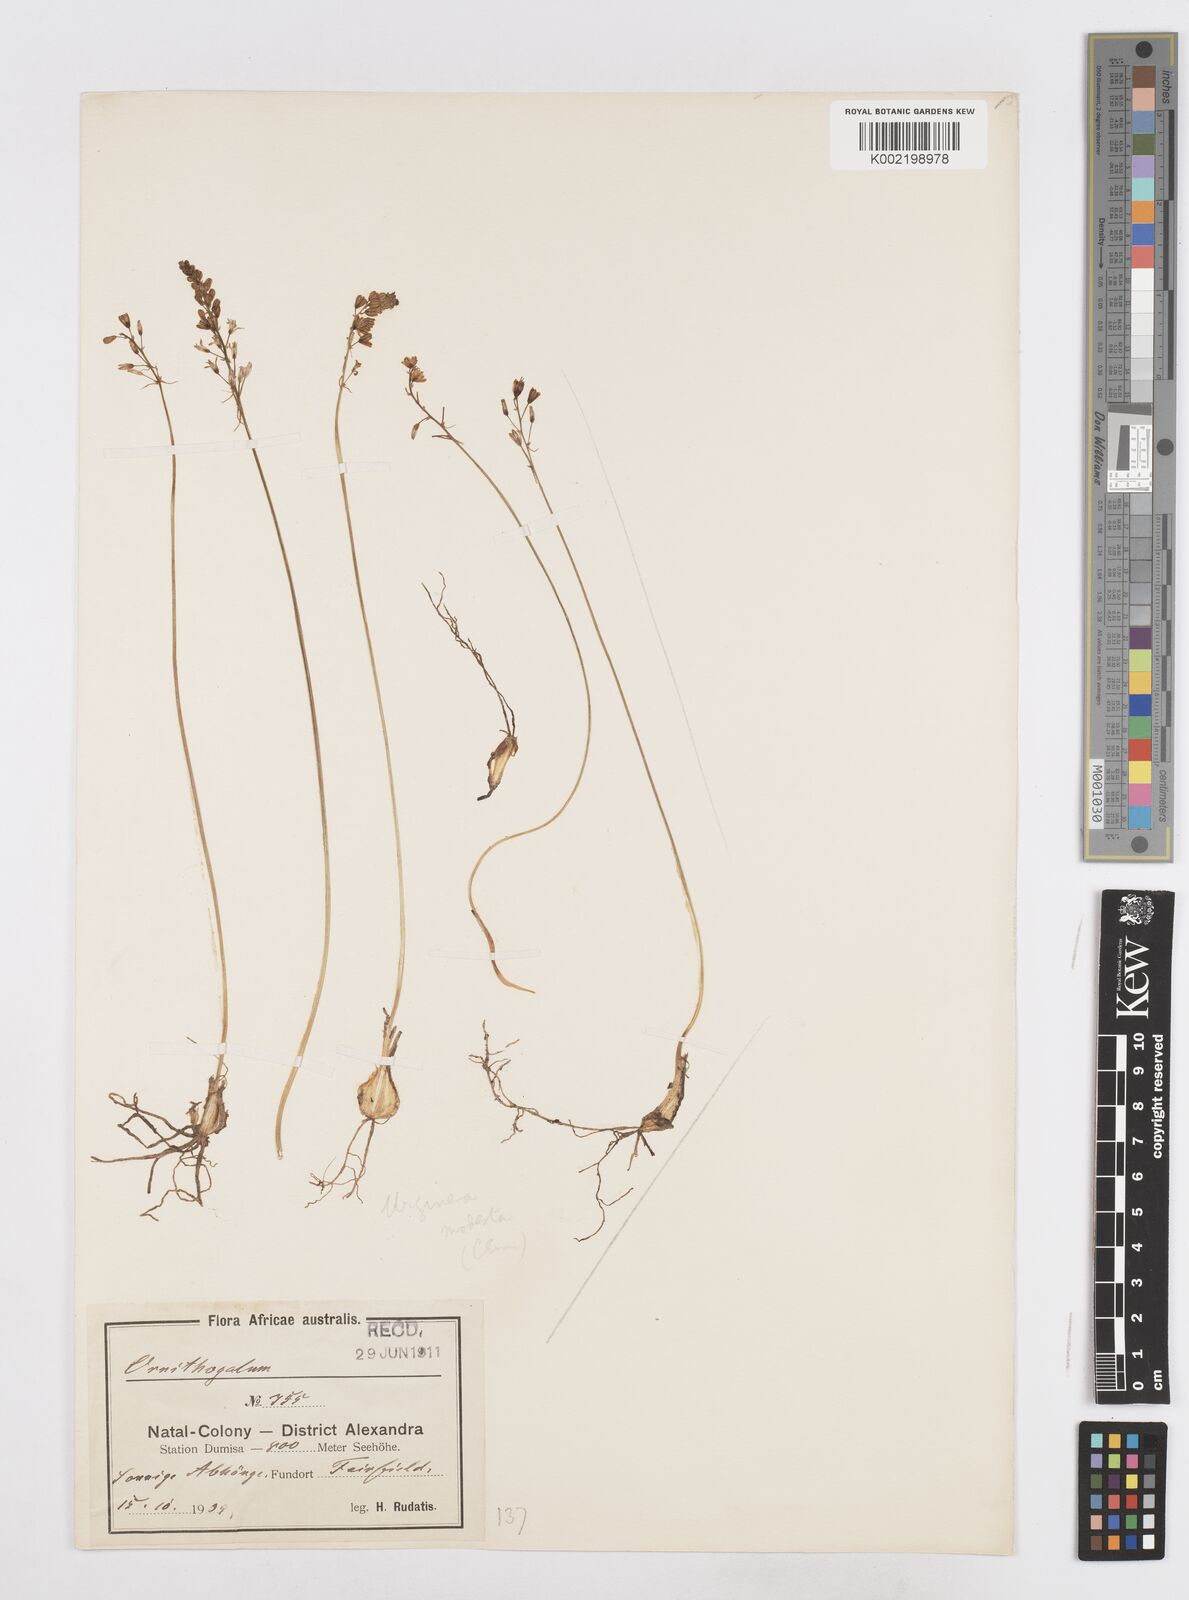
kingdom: Plantae
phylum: Tracheophyta
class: Liliopsida
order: Asparagales
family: Asparagaceae
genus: Drimia
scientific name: Drimia modesta
